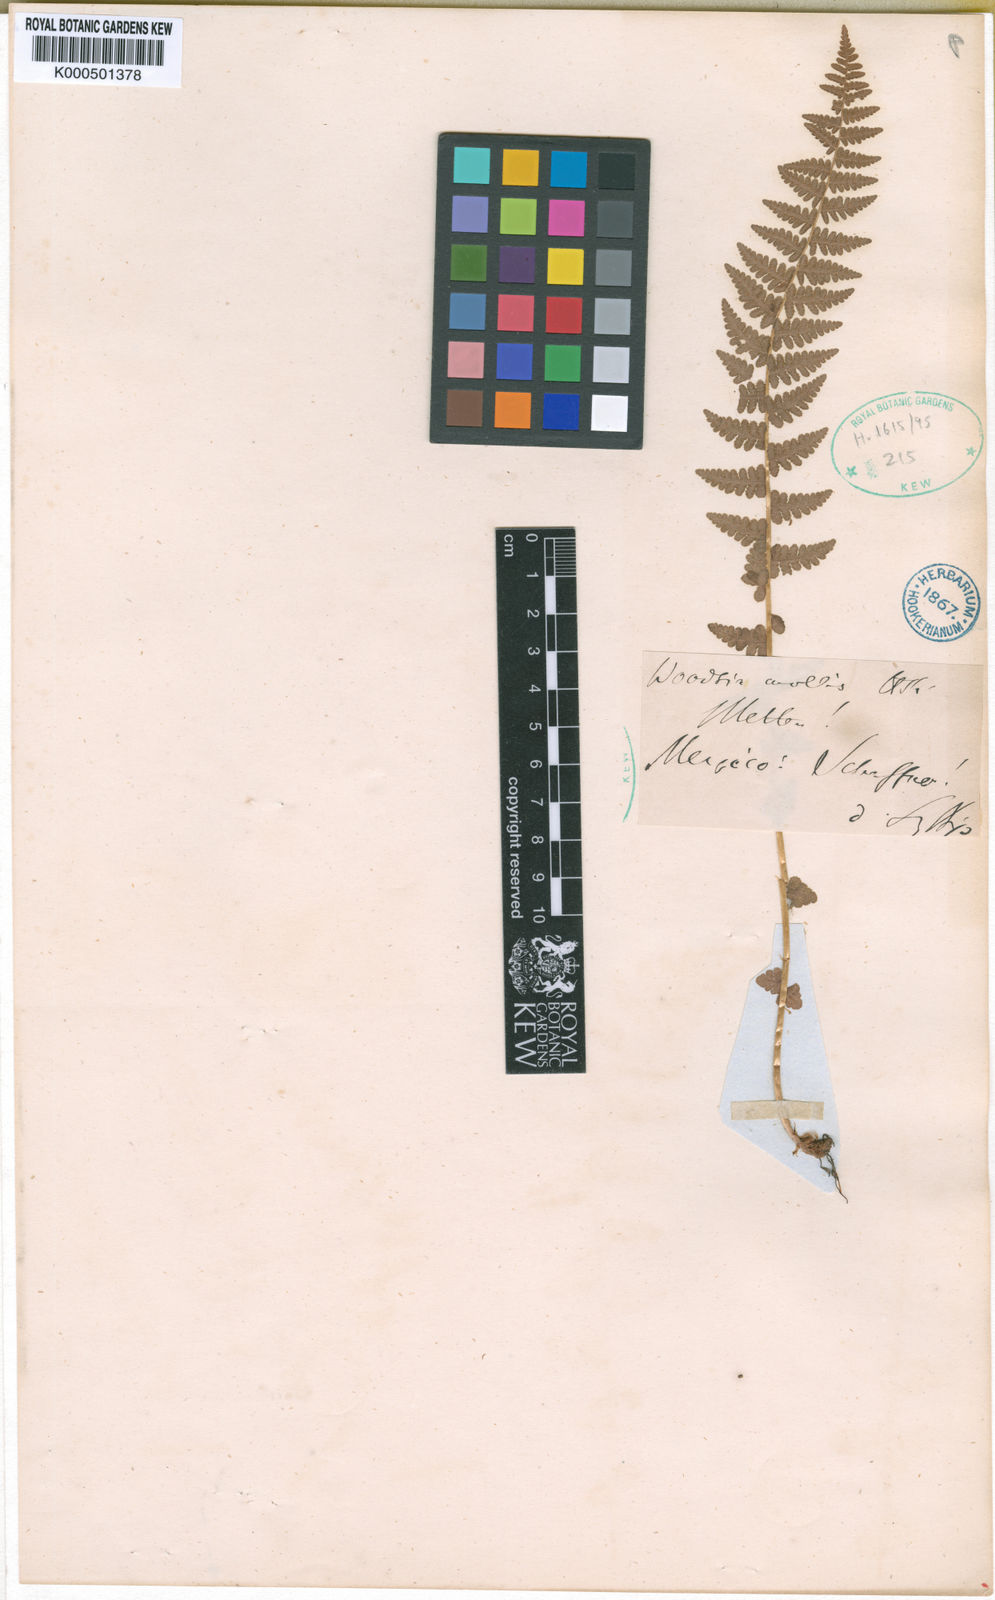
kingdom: Plantae
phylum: Tracheophyta
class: Polypodiopsida
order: Polypodiales
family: Woodsiaceae
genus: Physematium
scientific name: Physematium molle
